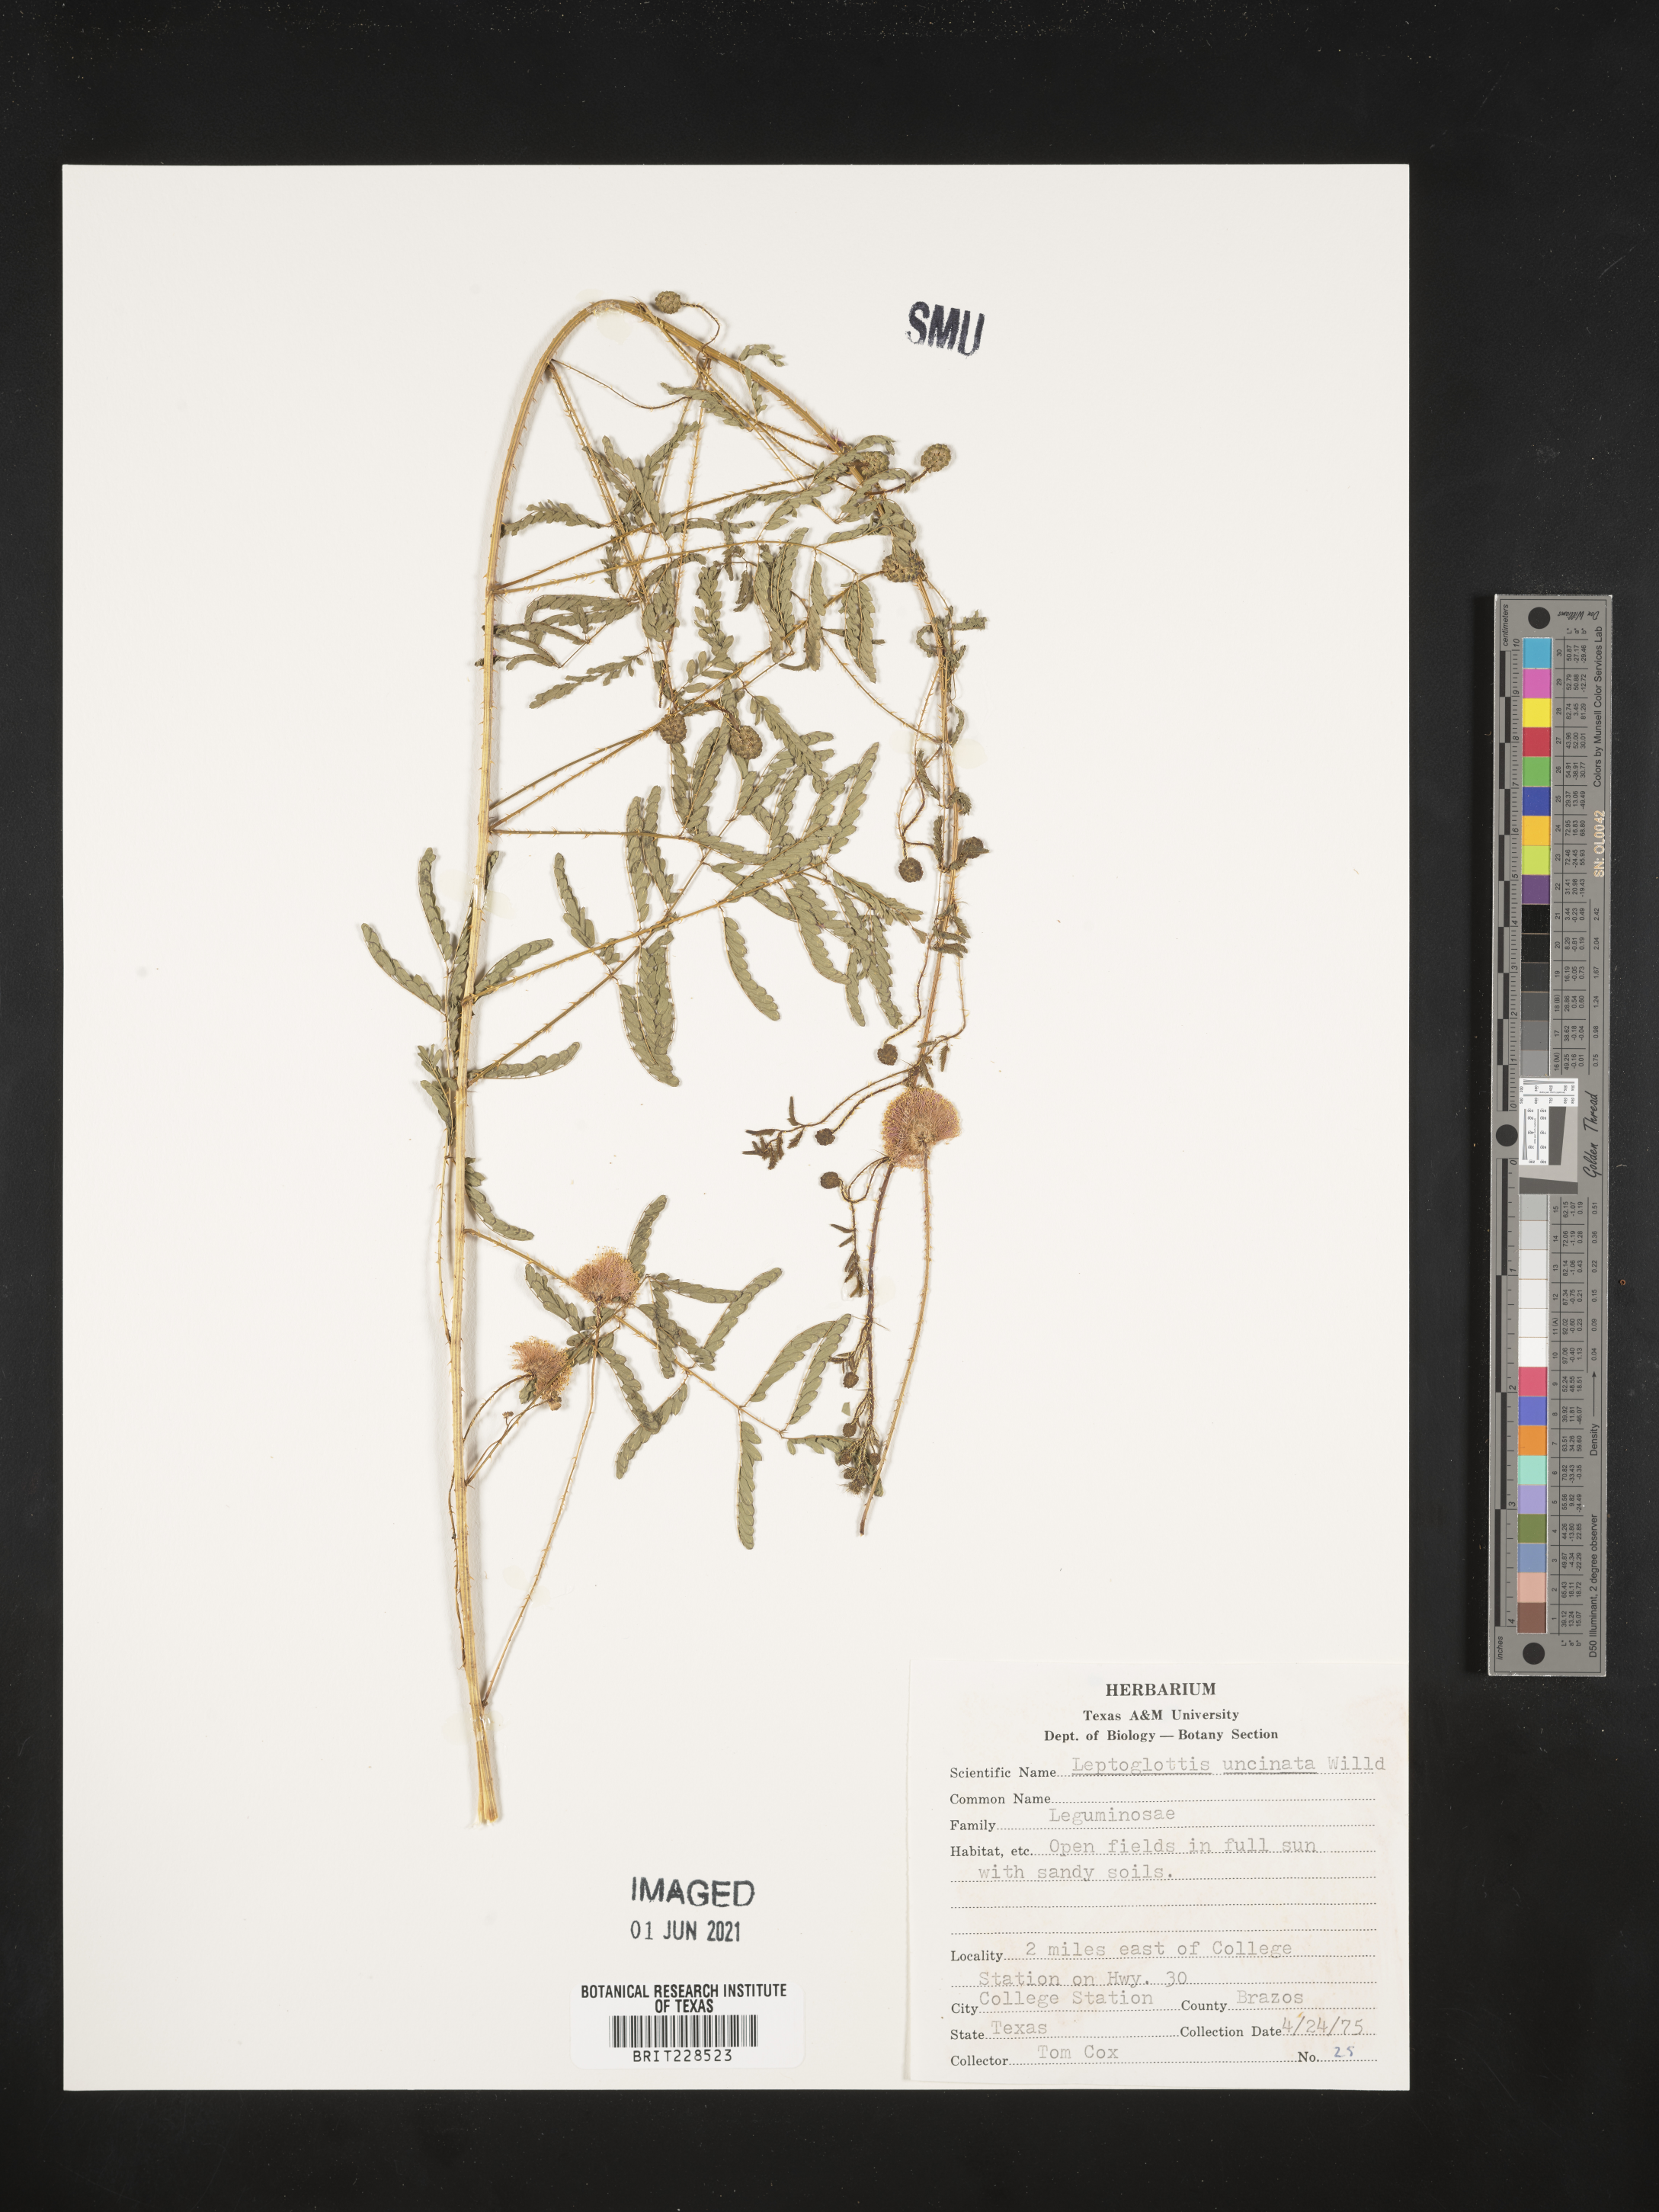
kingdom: Plantae
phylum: Tracheophyta
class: Magnoliopsida
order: Fabales
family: Fabaceae
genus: Mimosa
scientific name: Mimosa quadrivalvis
